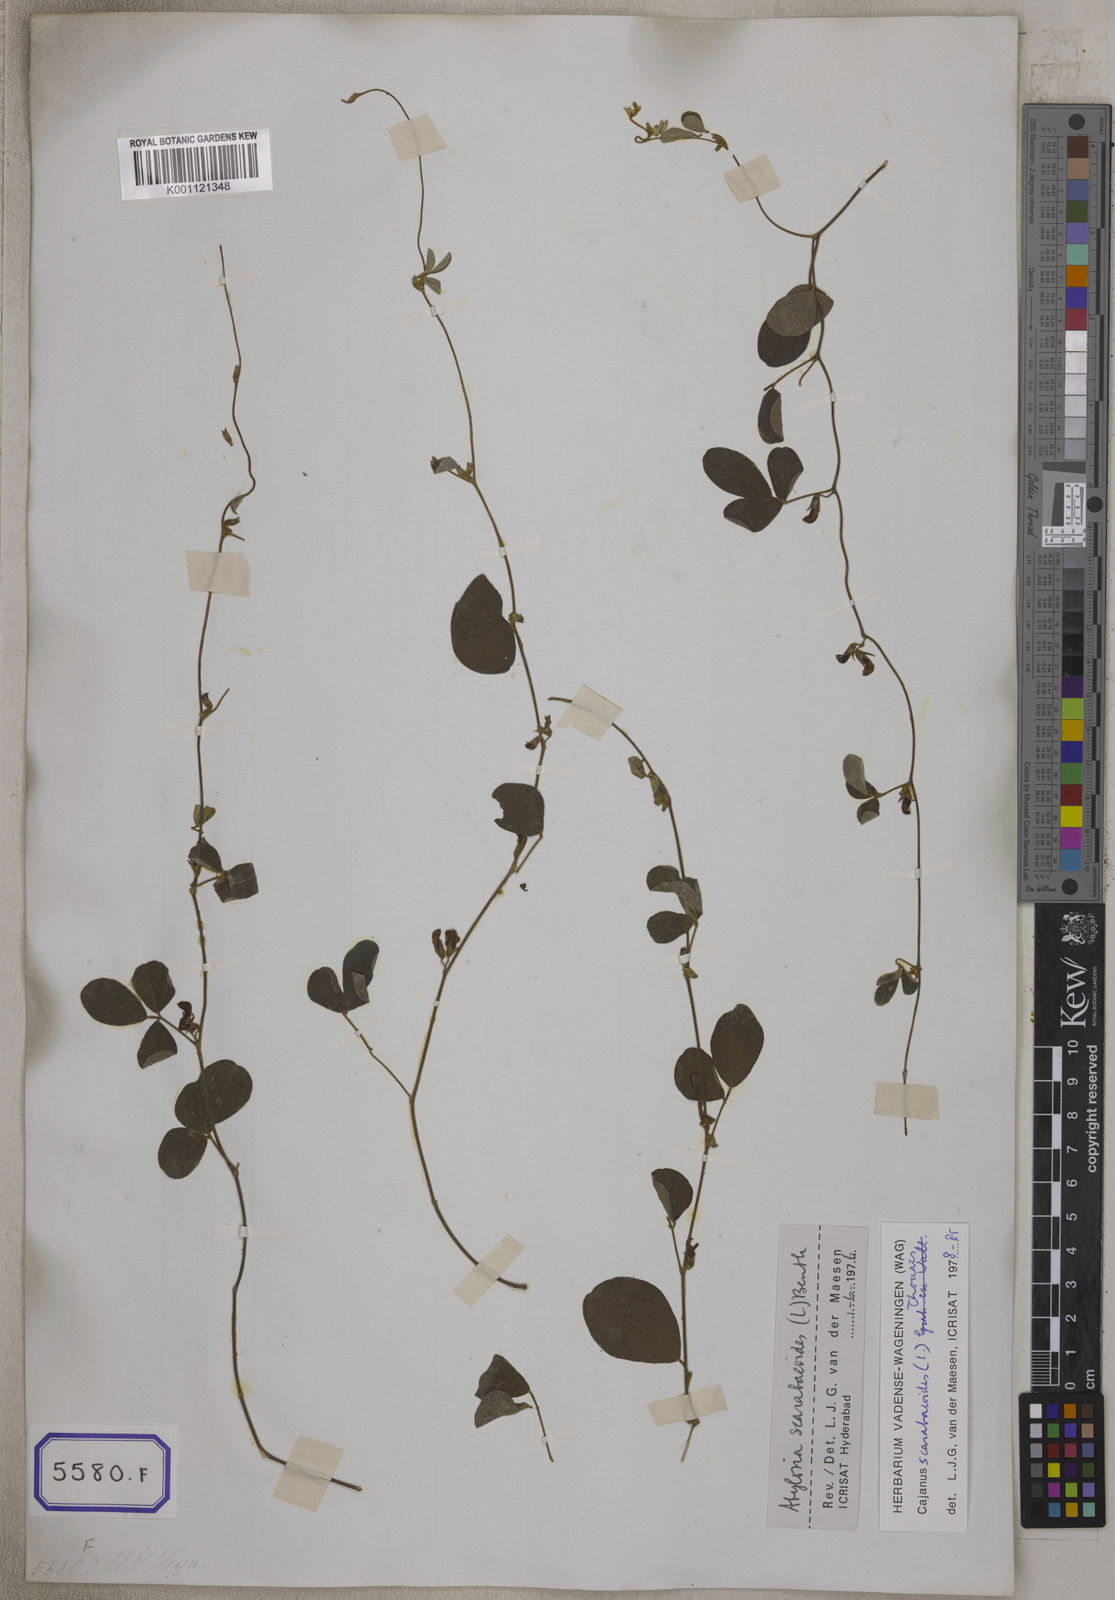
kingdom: Plantae
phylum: Tracheophyta
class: Magnoliopsida
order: Fabales
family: Fabaceae
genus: Cajanus
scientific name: Cajanus scarabaeoides
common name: Showy pigeonpea
